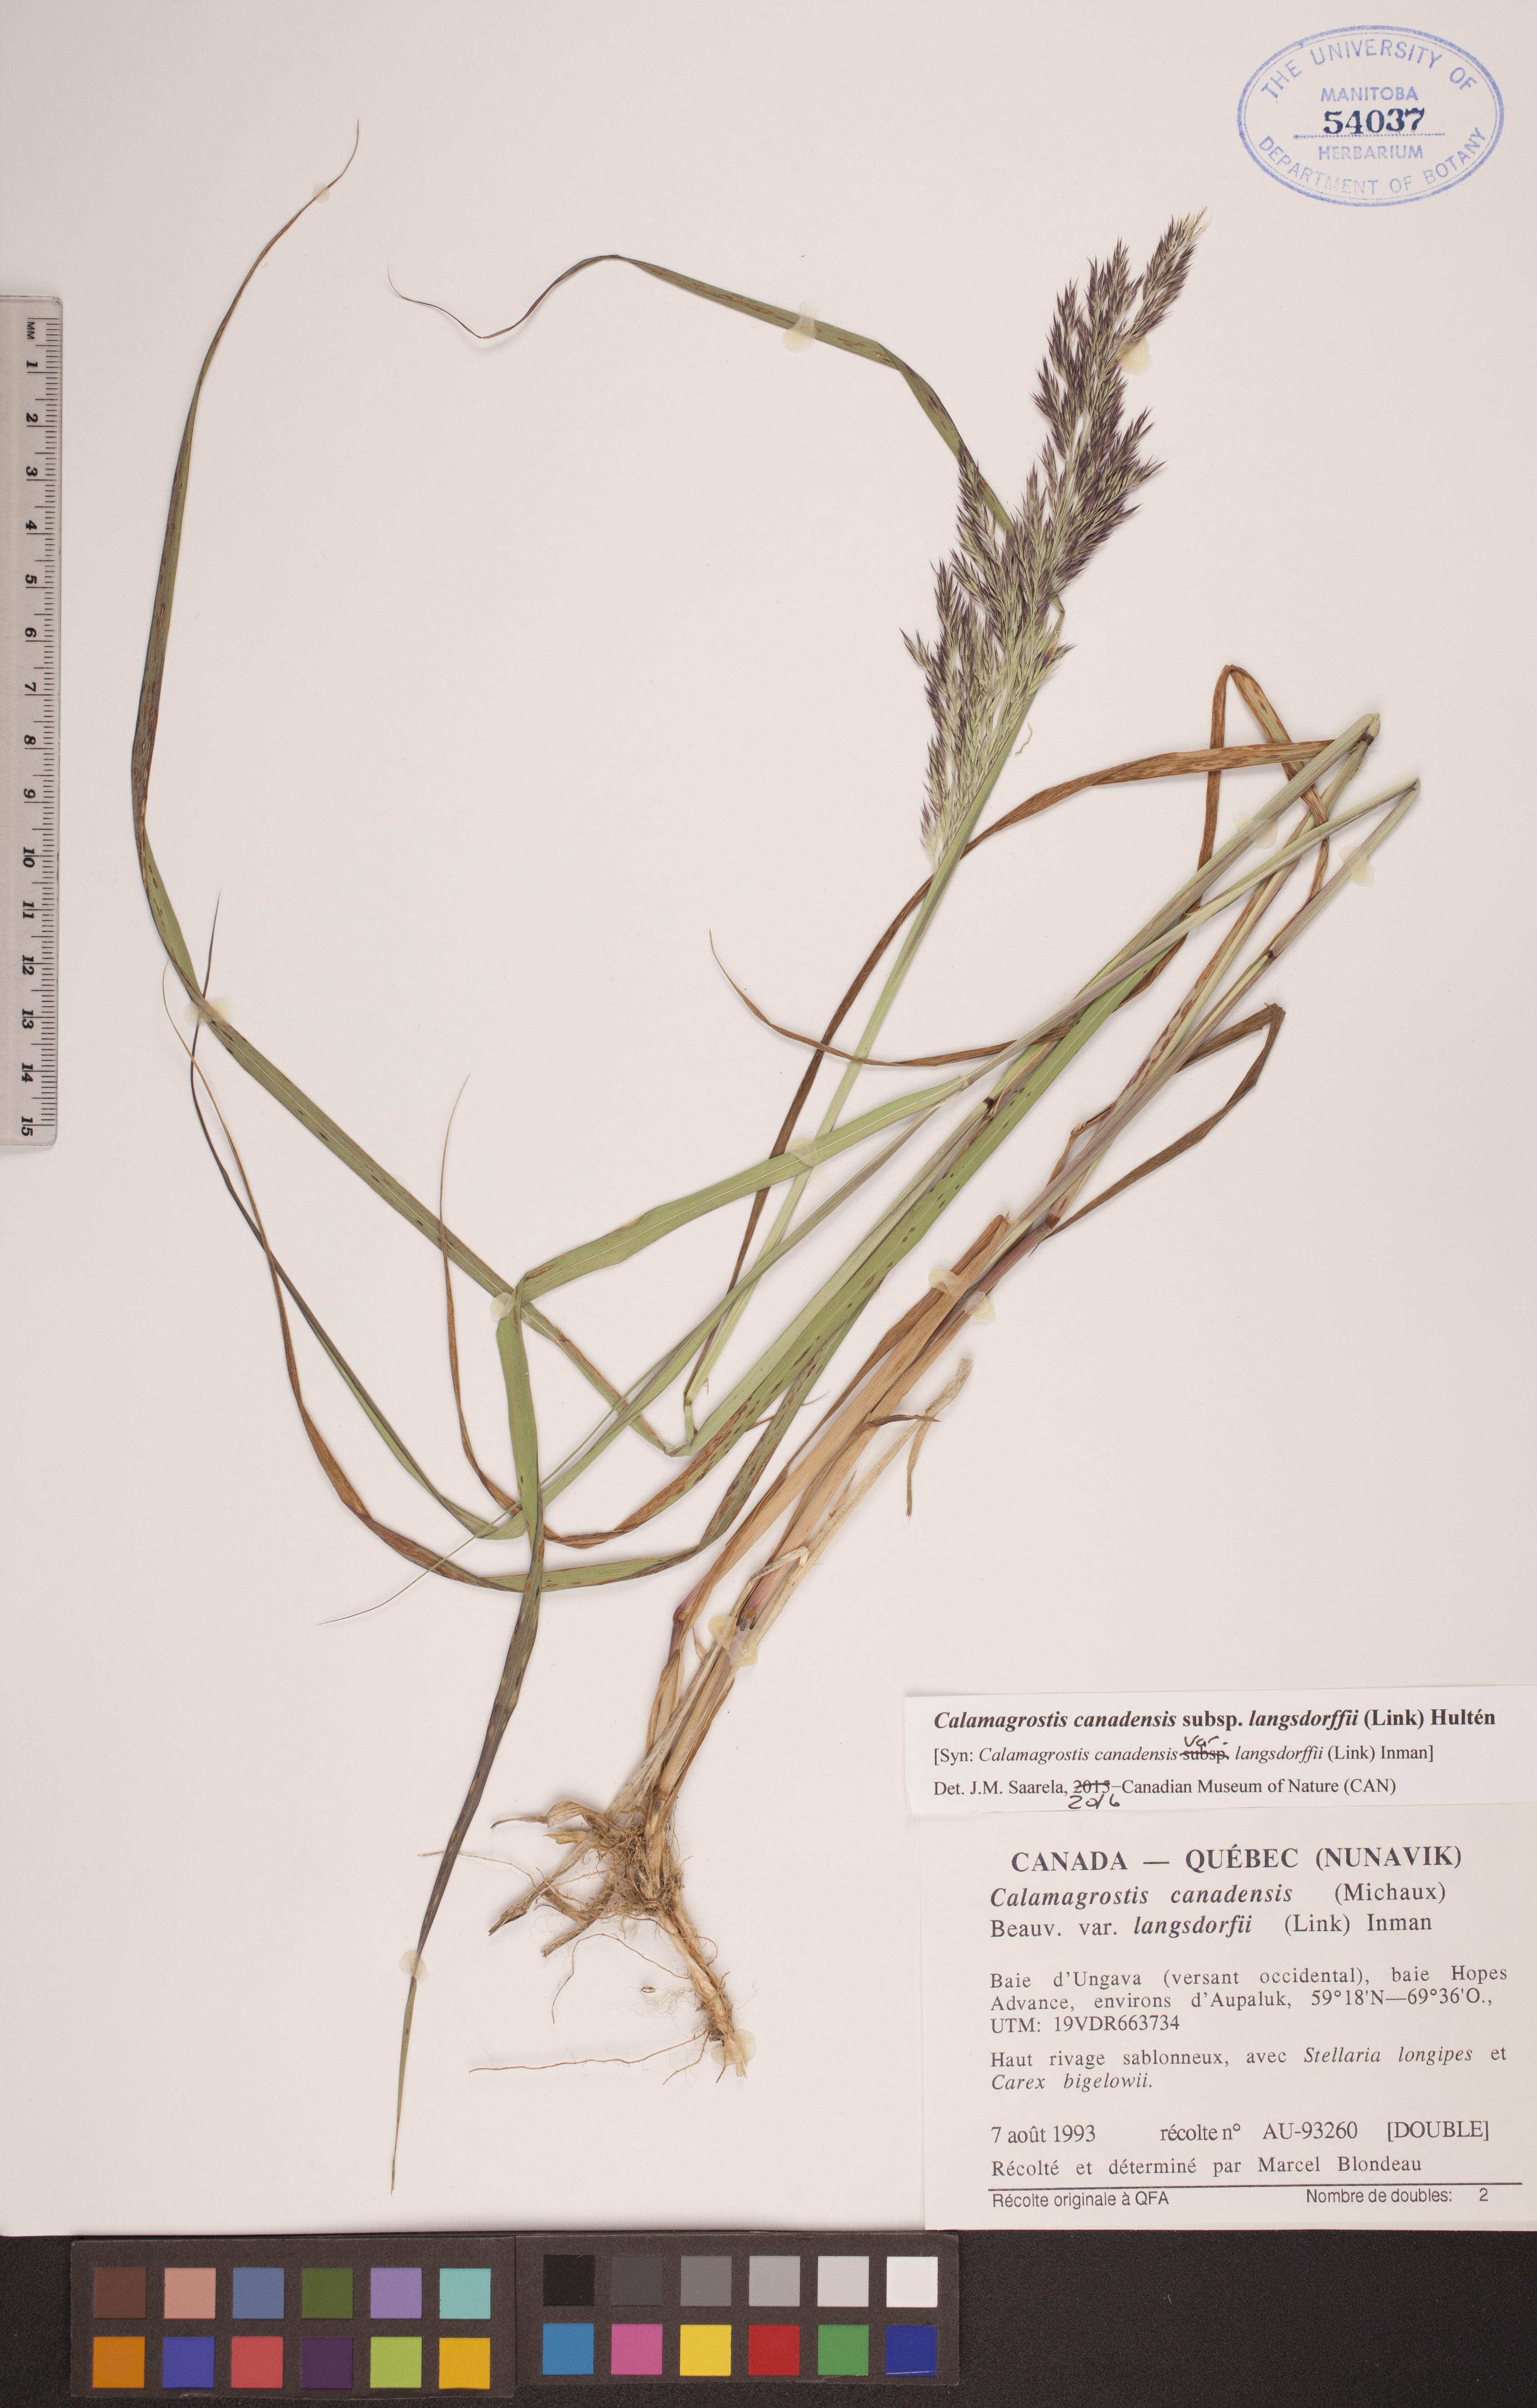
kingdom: Plantae
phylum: Tracheophyta
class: Liliopsida
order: Poales
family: Poaceae
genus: Calamagrostis
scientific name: Calamagrostis purpurea
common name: Scandinavian small-reed
